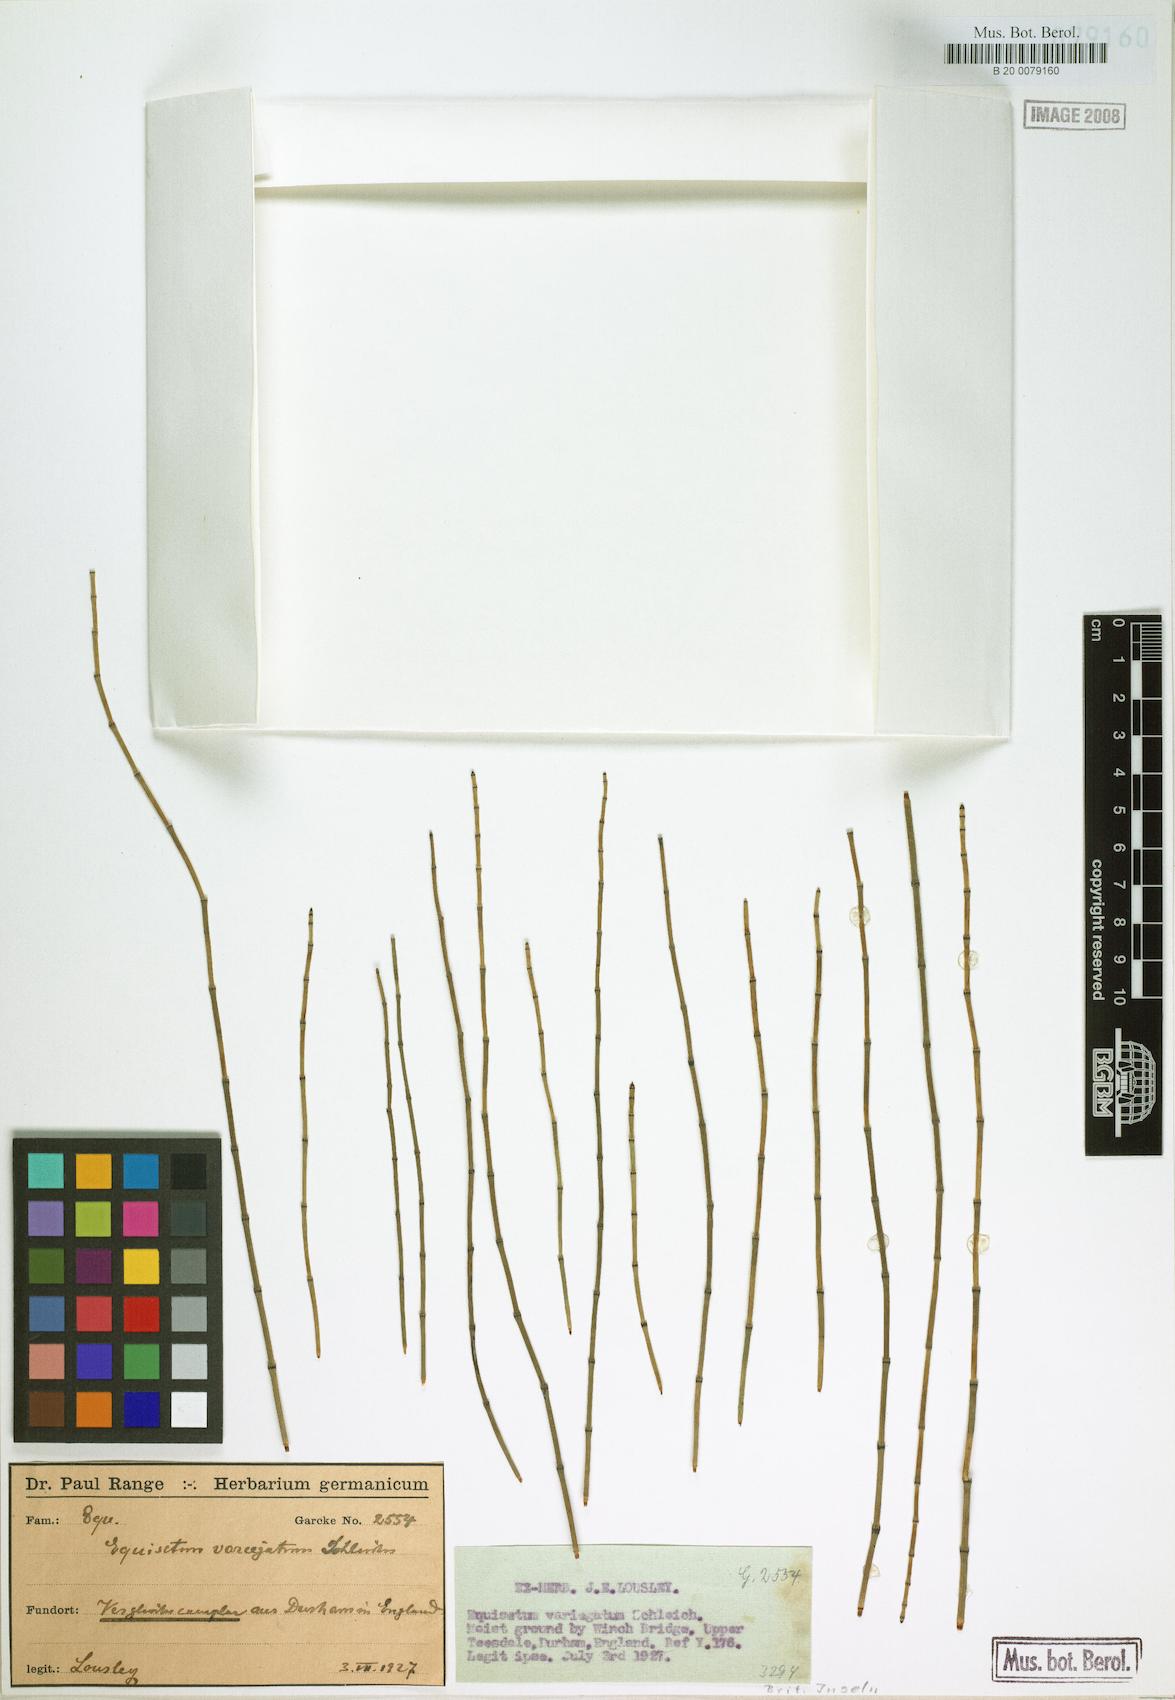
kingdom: Plantae
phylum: Tracheophyta
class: Polypodiopsida
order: Equisetales
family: Equisetaceae
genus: Equisetum
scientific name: Equisetum variegatum
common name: Variegated horsetail
